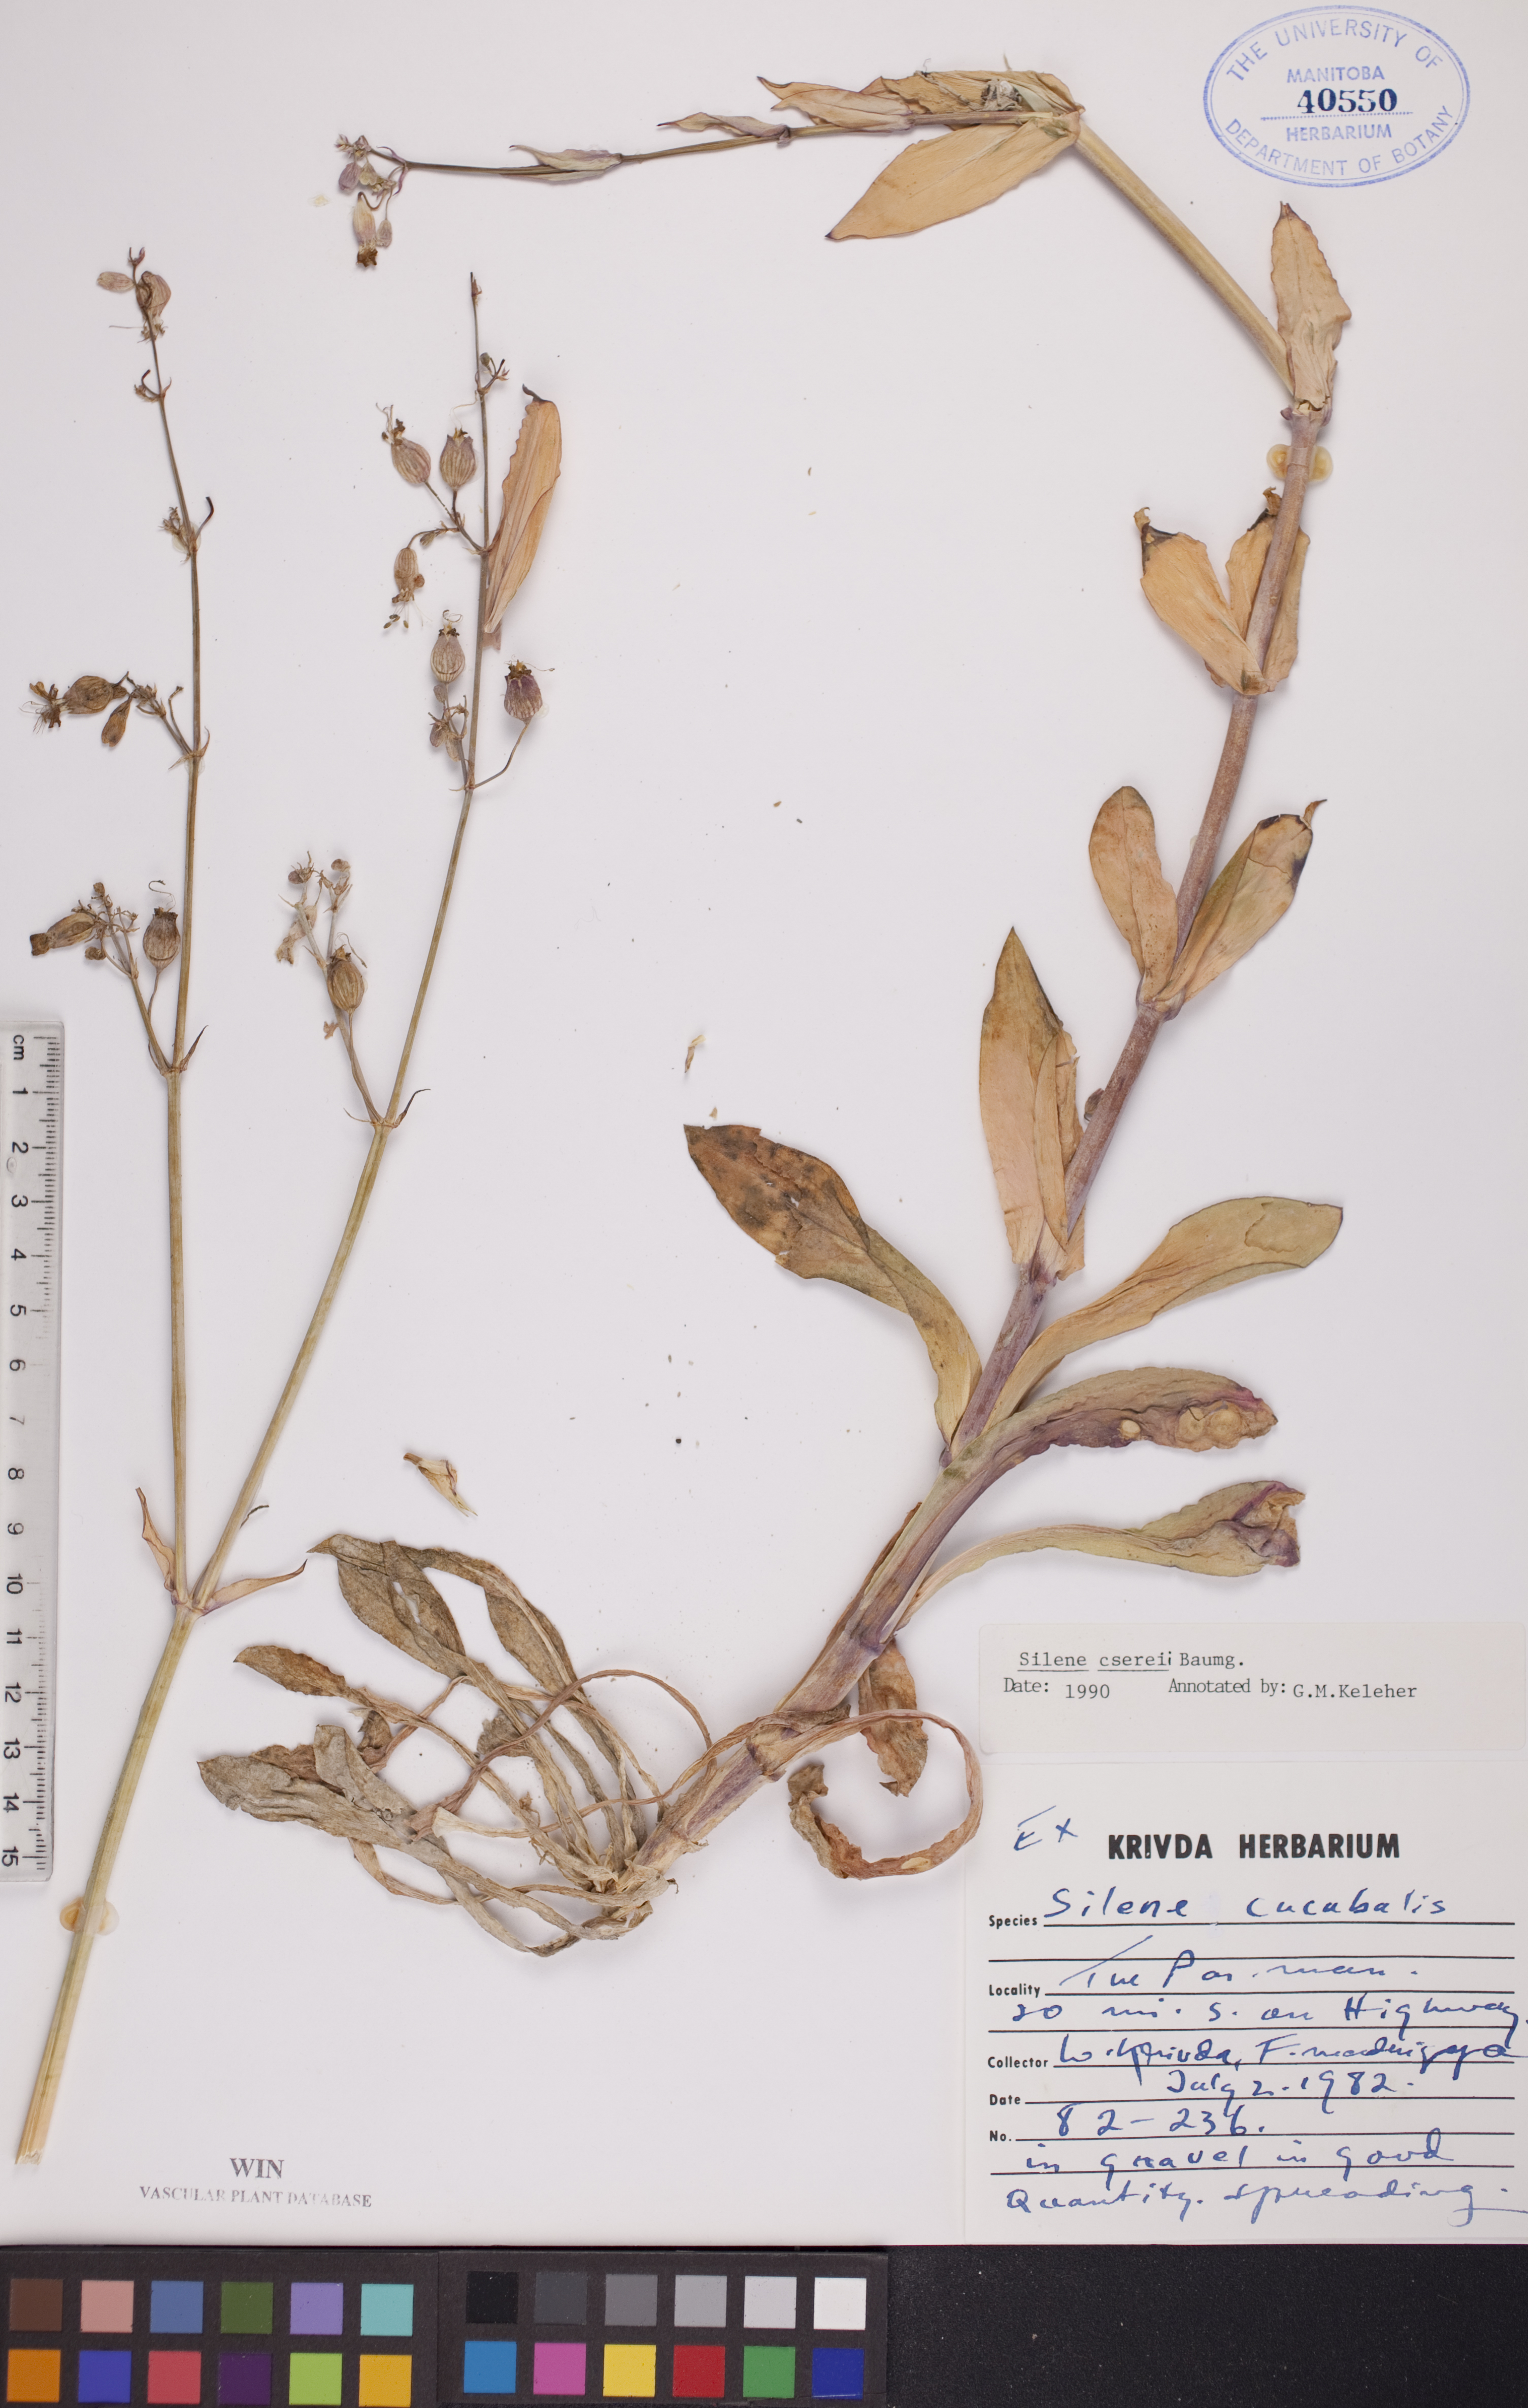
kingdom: Plantae
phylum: Tracheophyta
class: Magnoliopsida
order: Caryophyllales
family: Caryophyllaceae
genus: Silene
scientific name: Silene csereii
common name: Balkan catchfly
